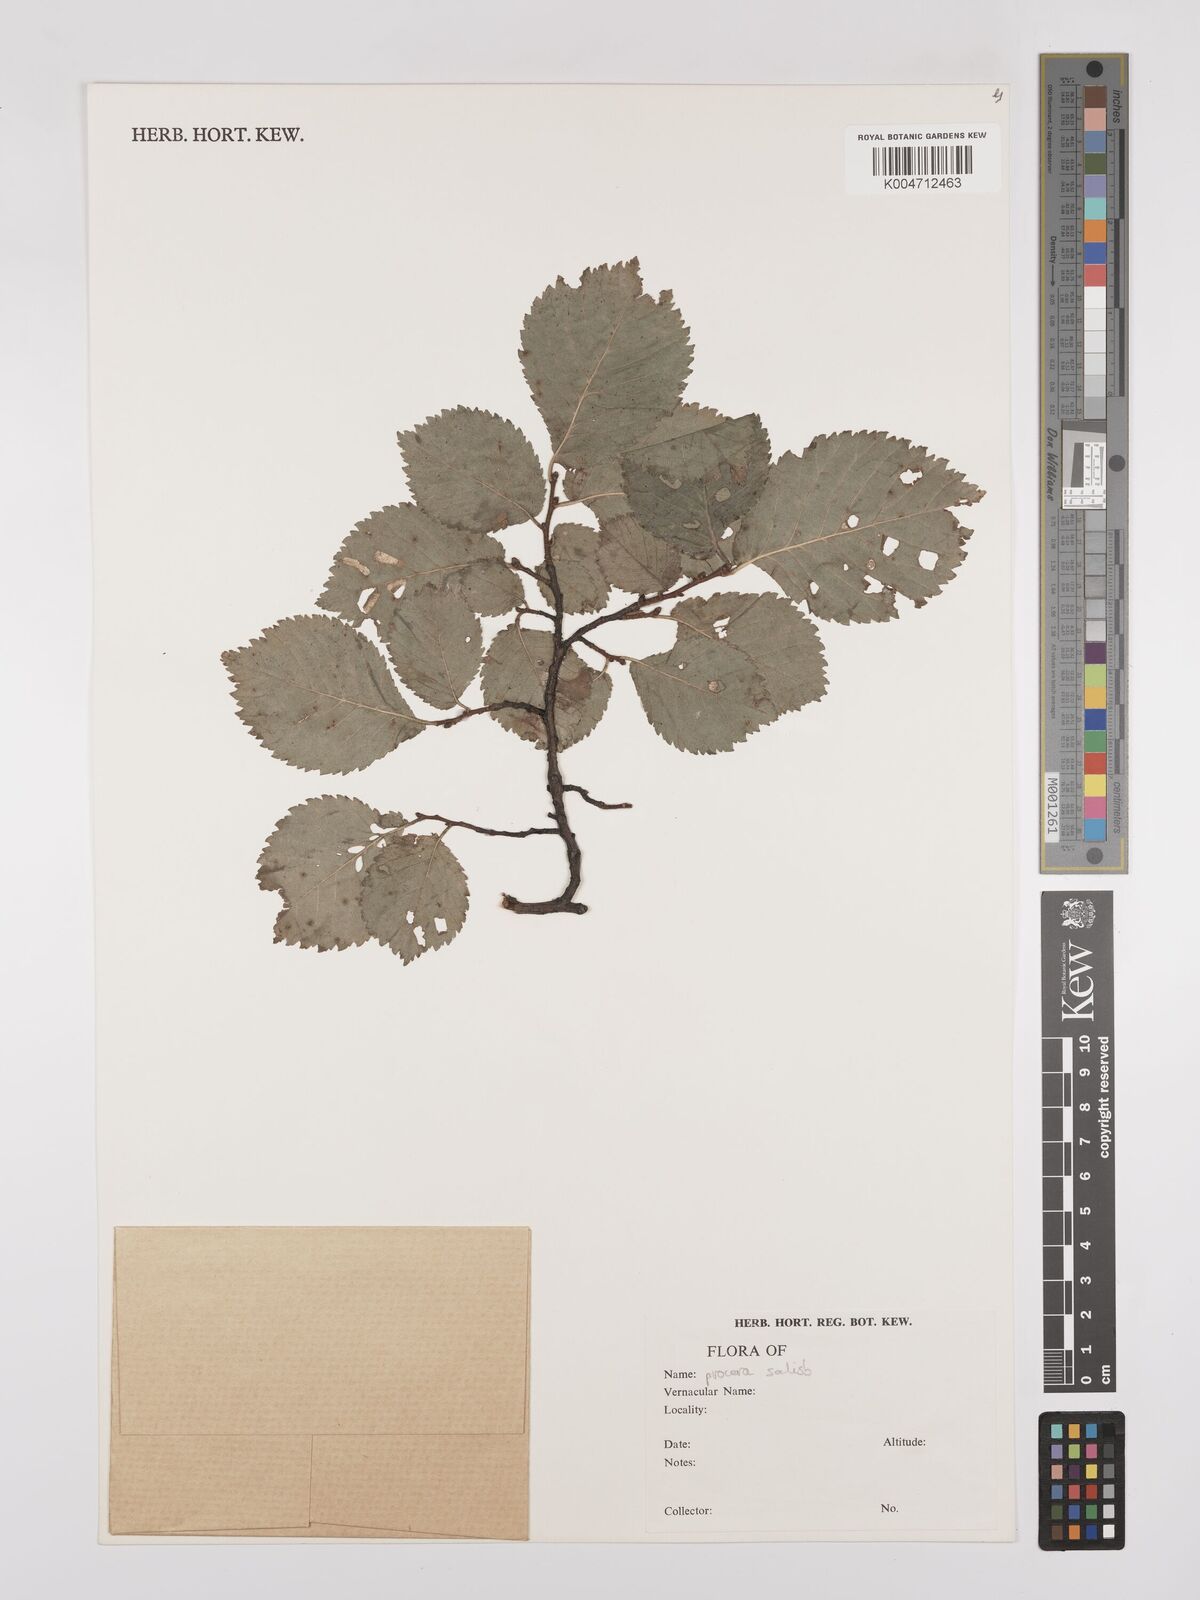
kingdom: Plantae
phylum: Tracheophyta
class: Magnoliopsida
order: Rosales
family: Ulmaceae
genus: Ulmus
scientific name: Ulmus minor
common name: Small-leaved elm
